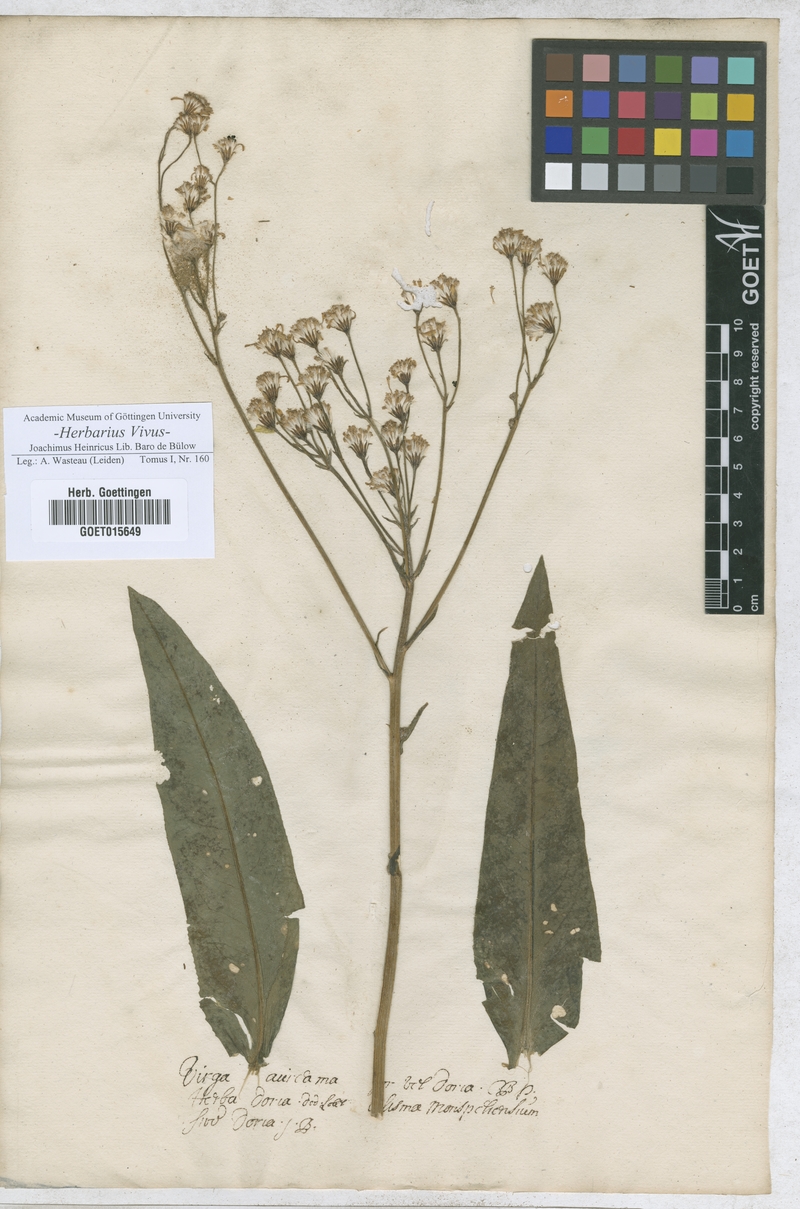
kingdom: Animalia
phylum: Arthropoda
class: Insecta
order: Lepidoptera
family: Hesperiidae
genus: Virga
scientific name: Virga
